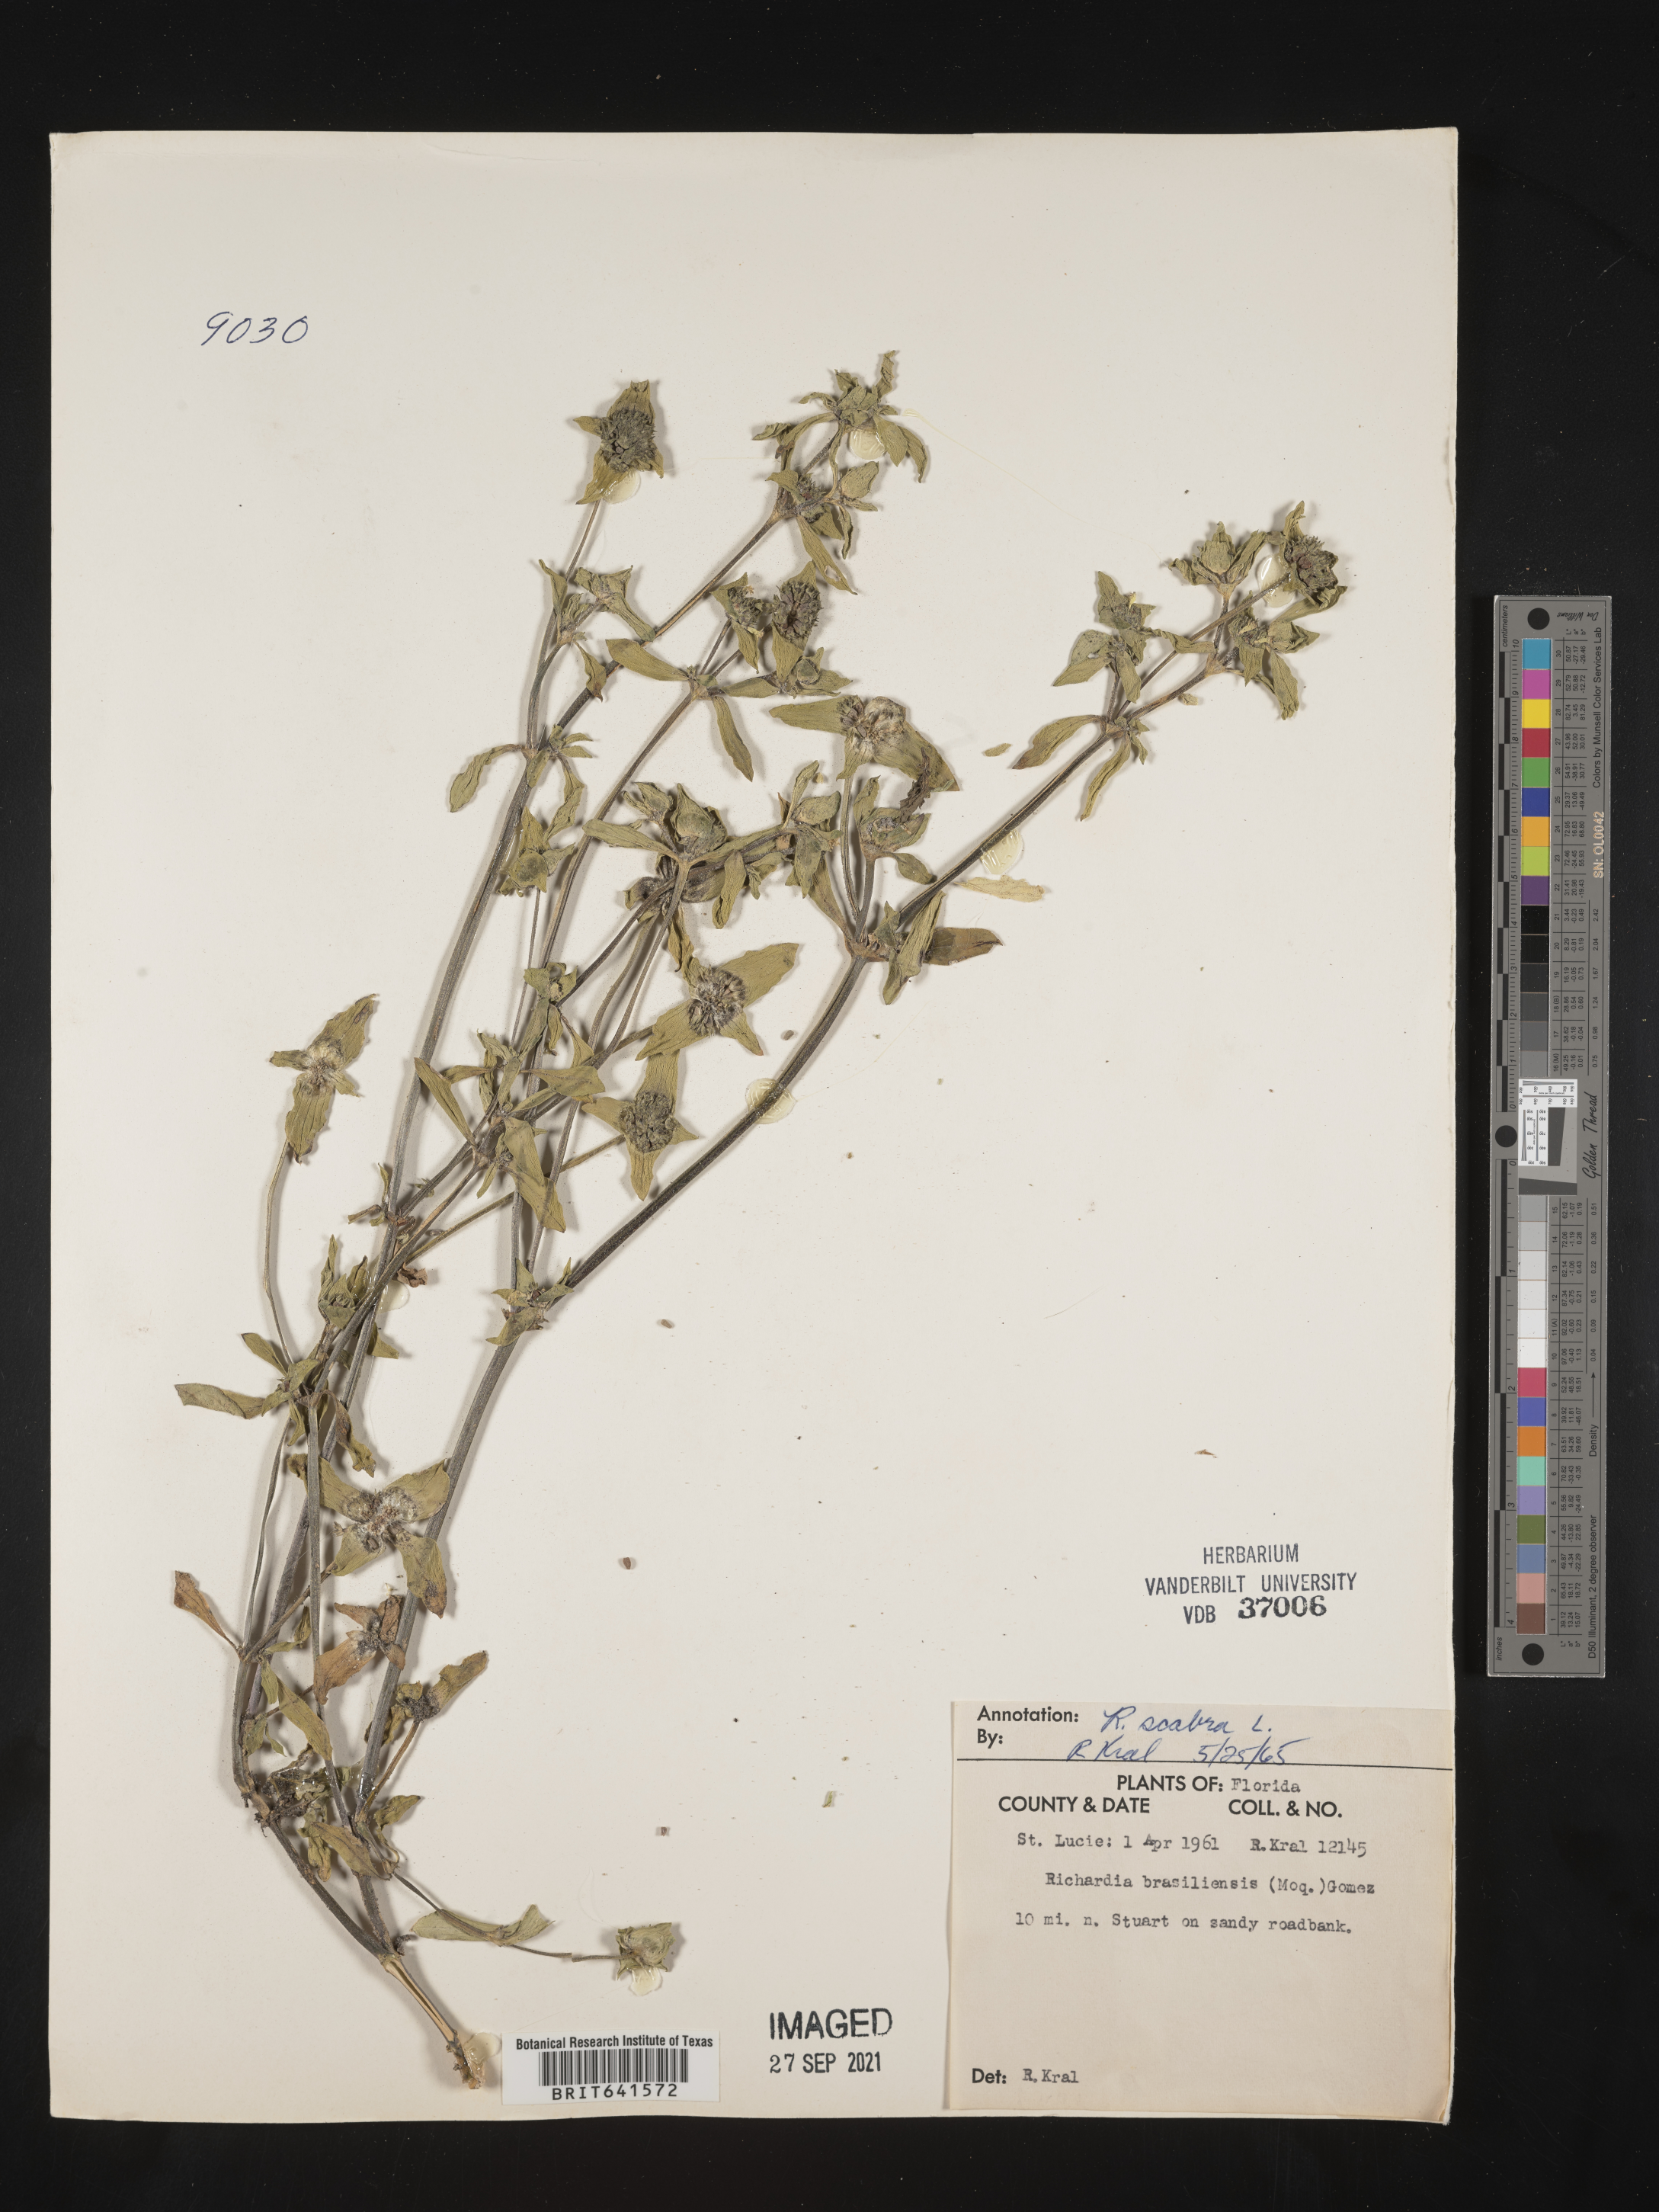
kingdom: Plantae
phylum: Tracheophyta
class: Magnoliopsida
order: Gentianales
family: Rubiaceae
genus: Richardia
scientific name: Richardia scabra
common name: Rough mexican clover
